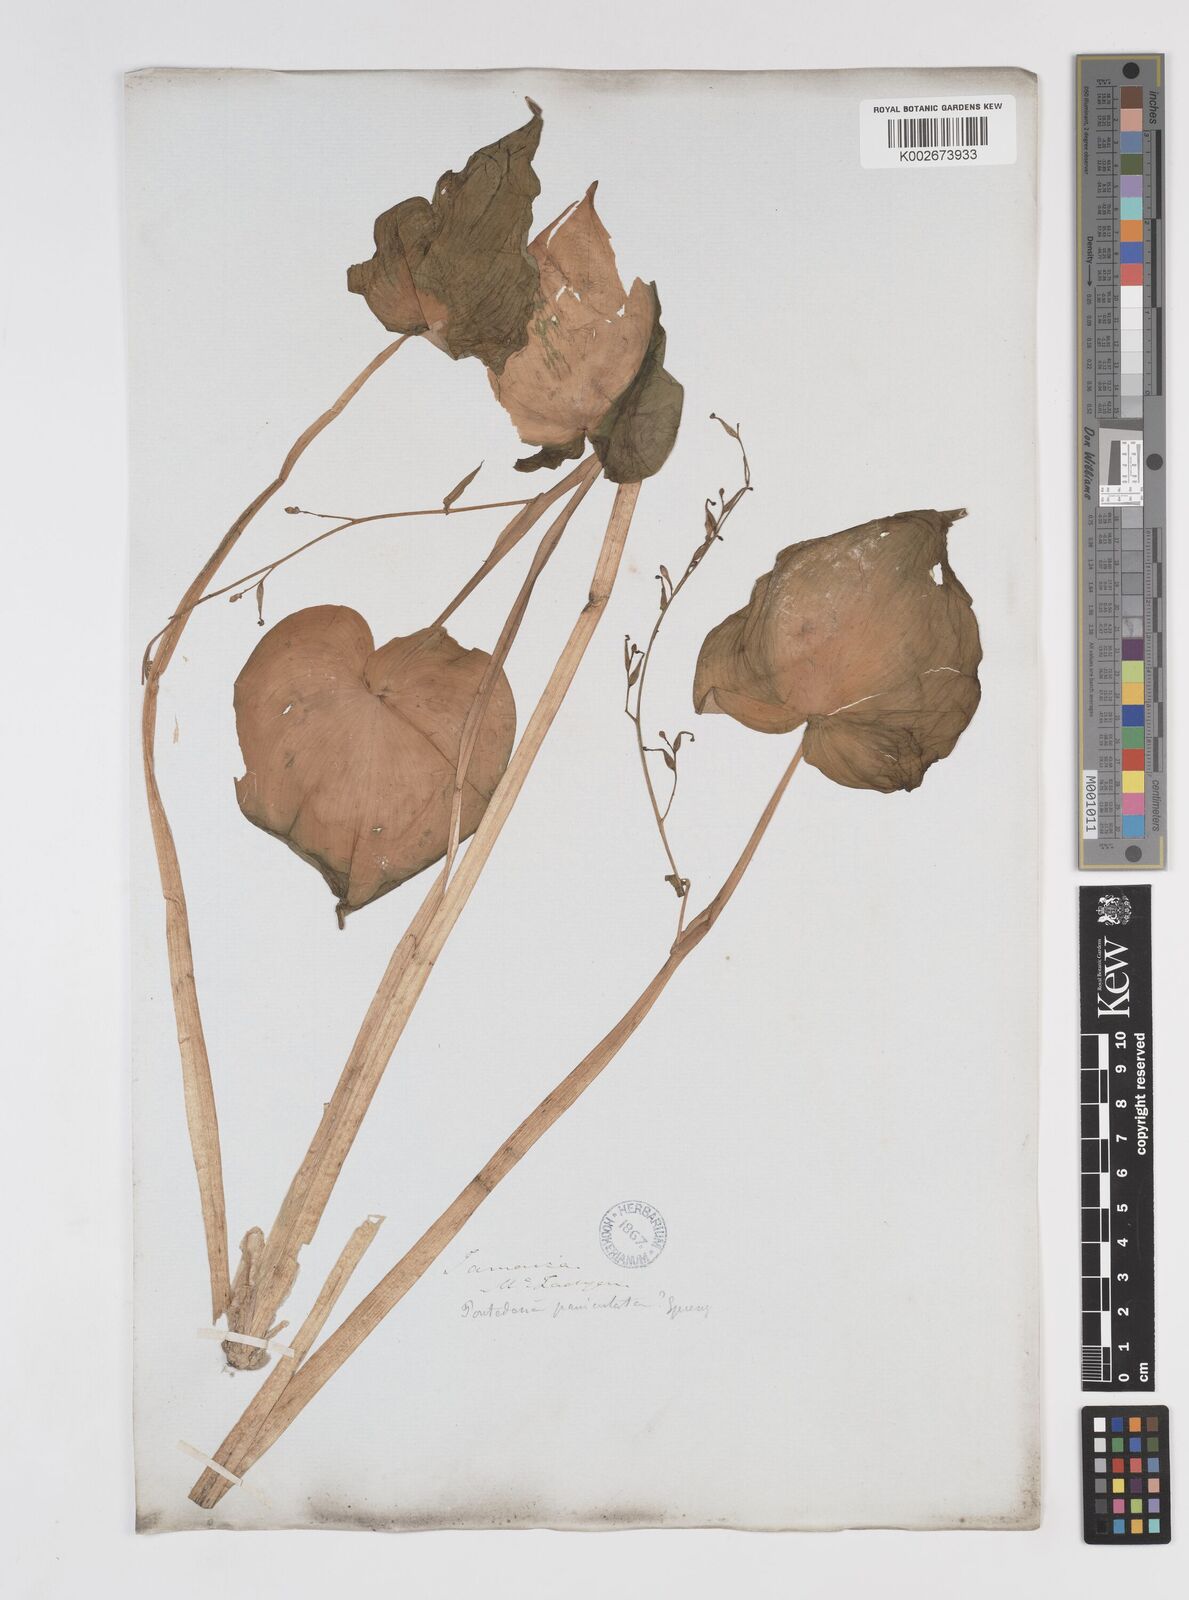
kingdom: Plantae
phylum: Tracheophyta
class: Liliopsida
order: Commelinales
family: Pontederiaceae
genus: Pontederia
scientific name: Pontederia paniculata
